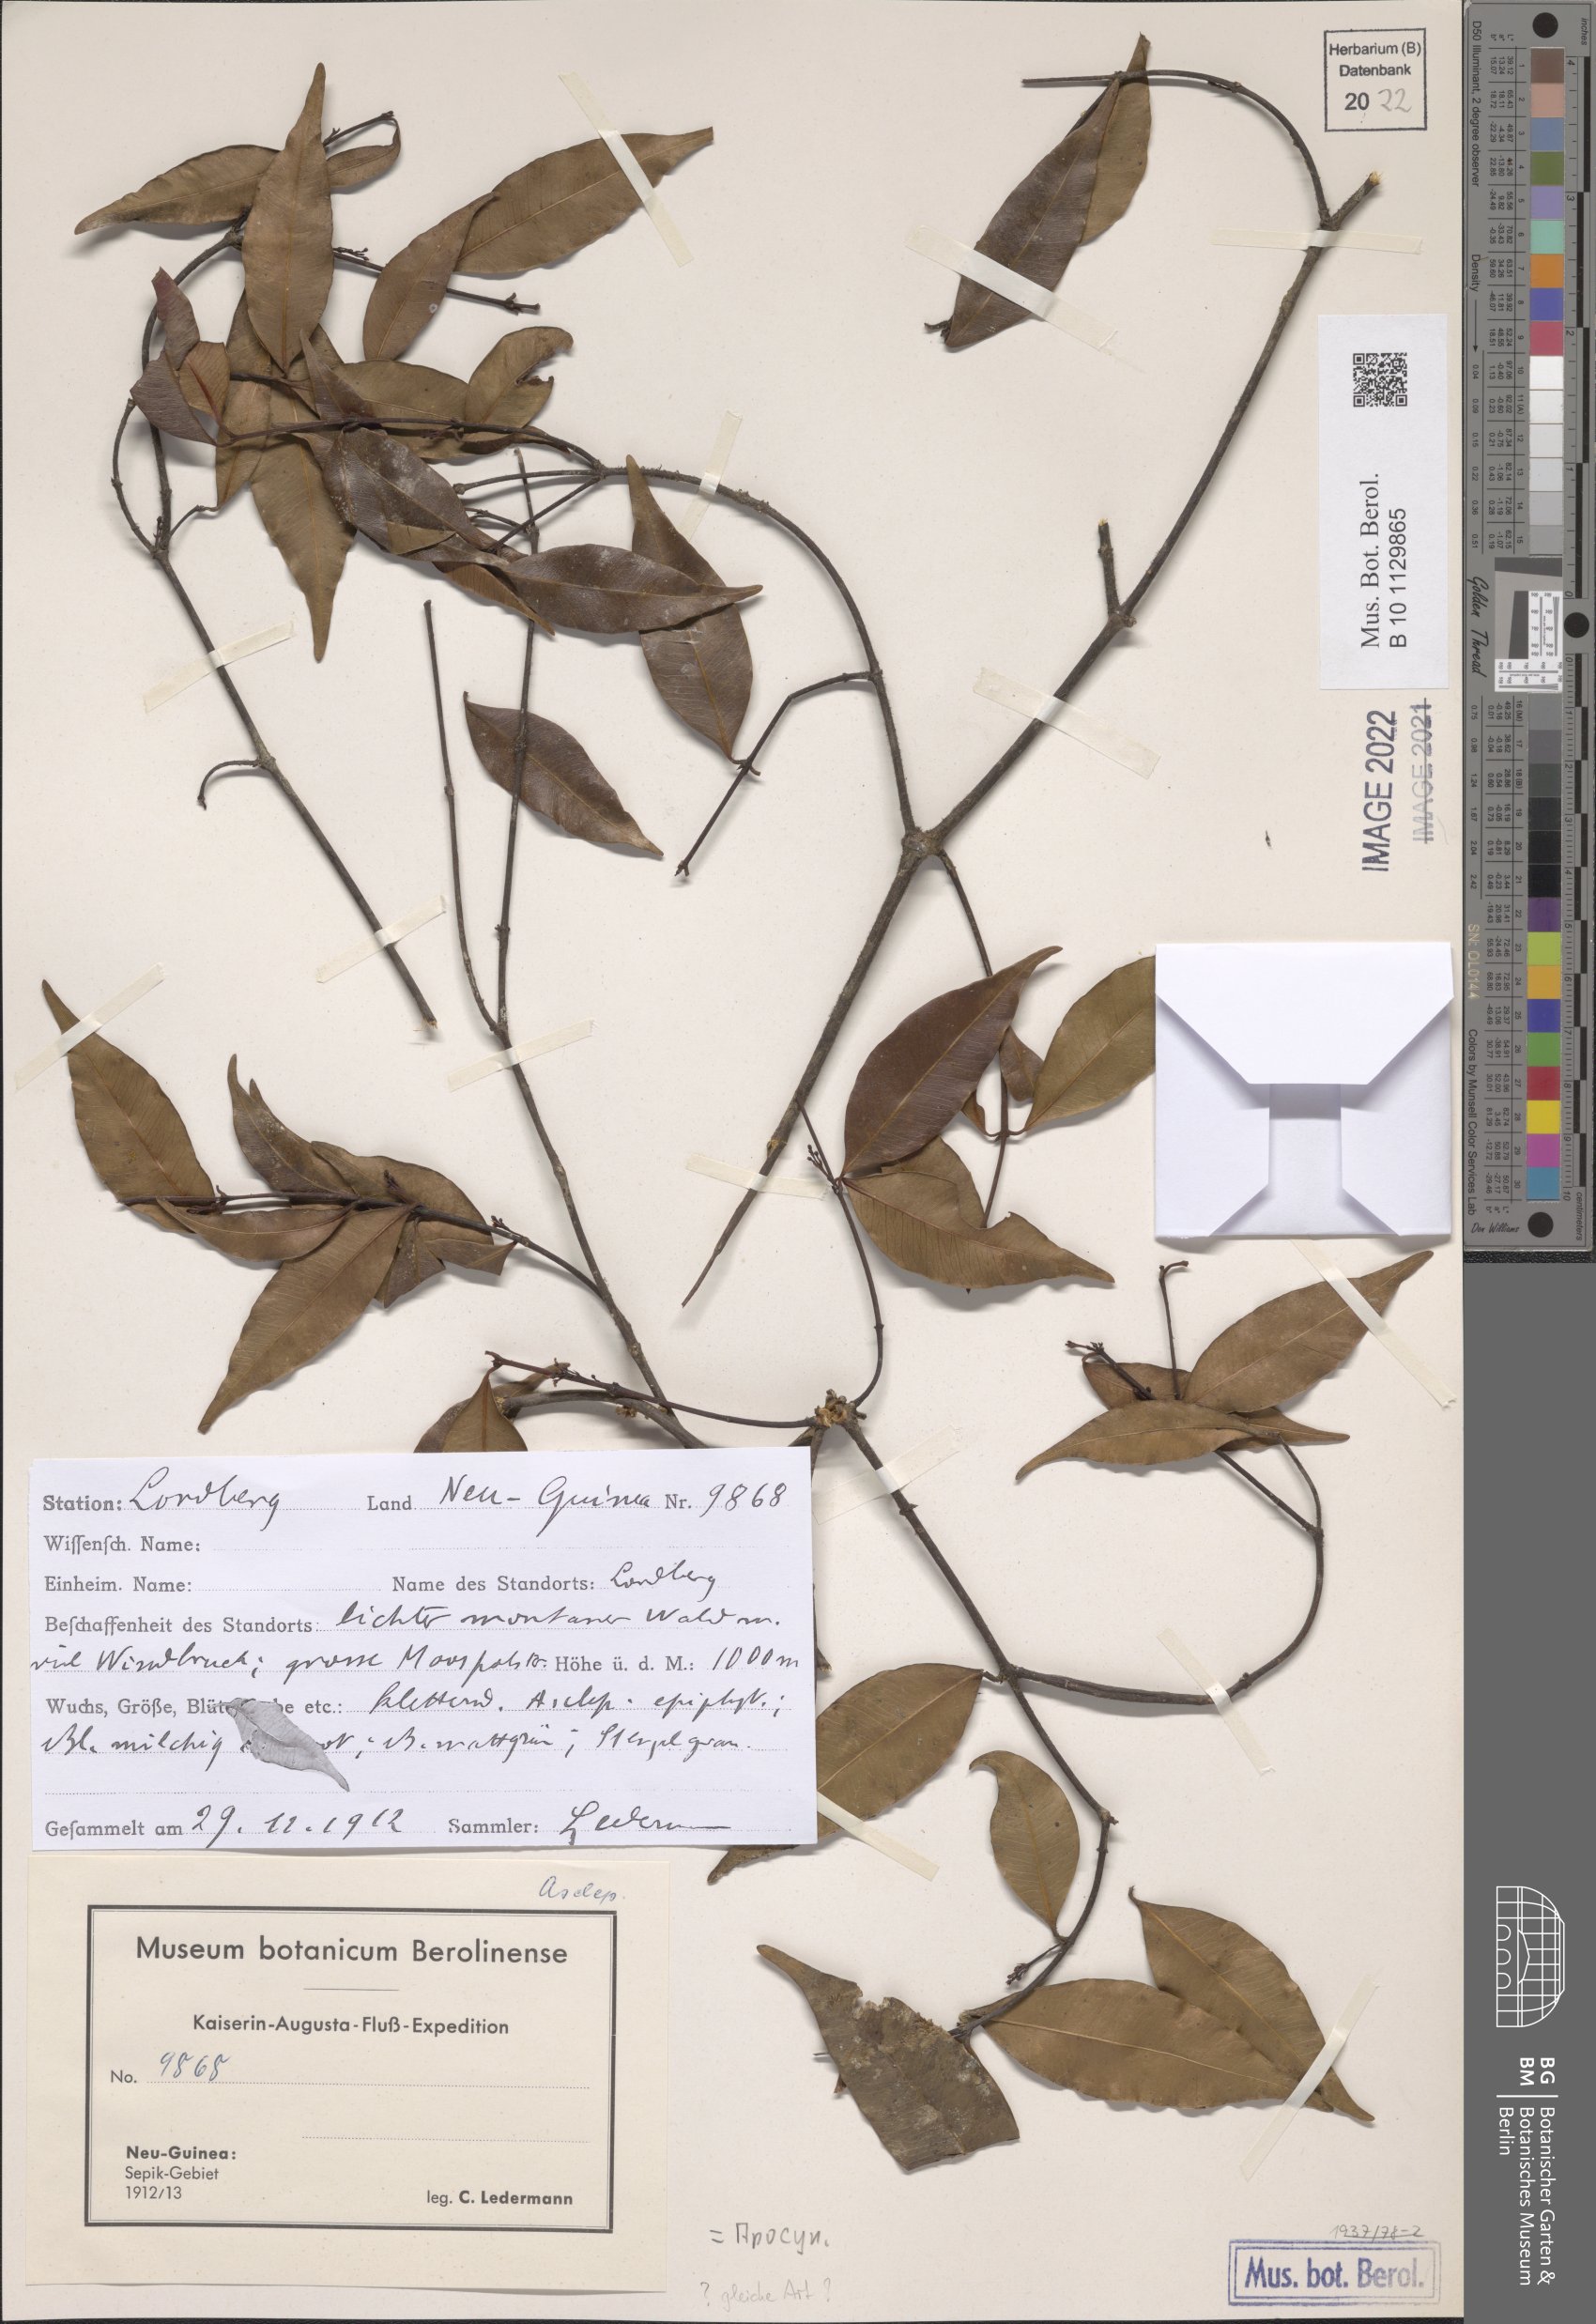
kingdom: Plantae
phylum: Tracheophyta
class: Magnoliopsida
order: Gentianales
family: Apocynaceae
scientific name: Apocynaceae
